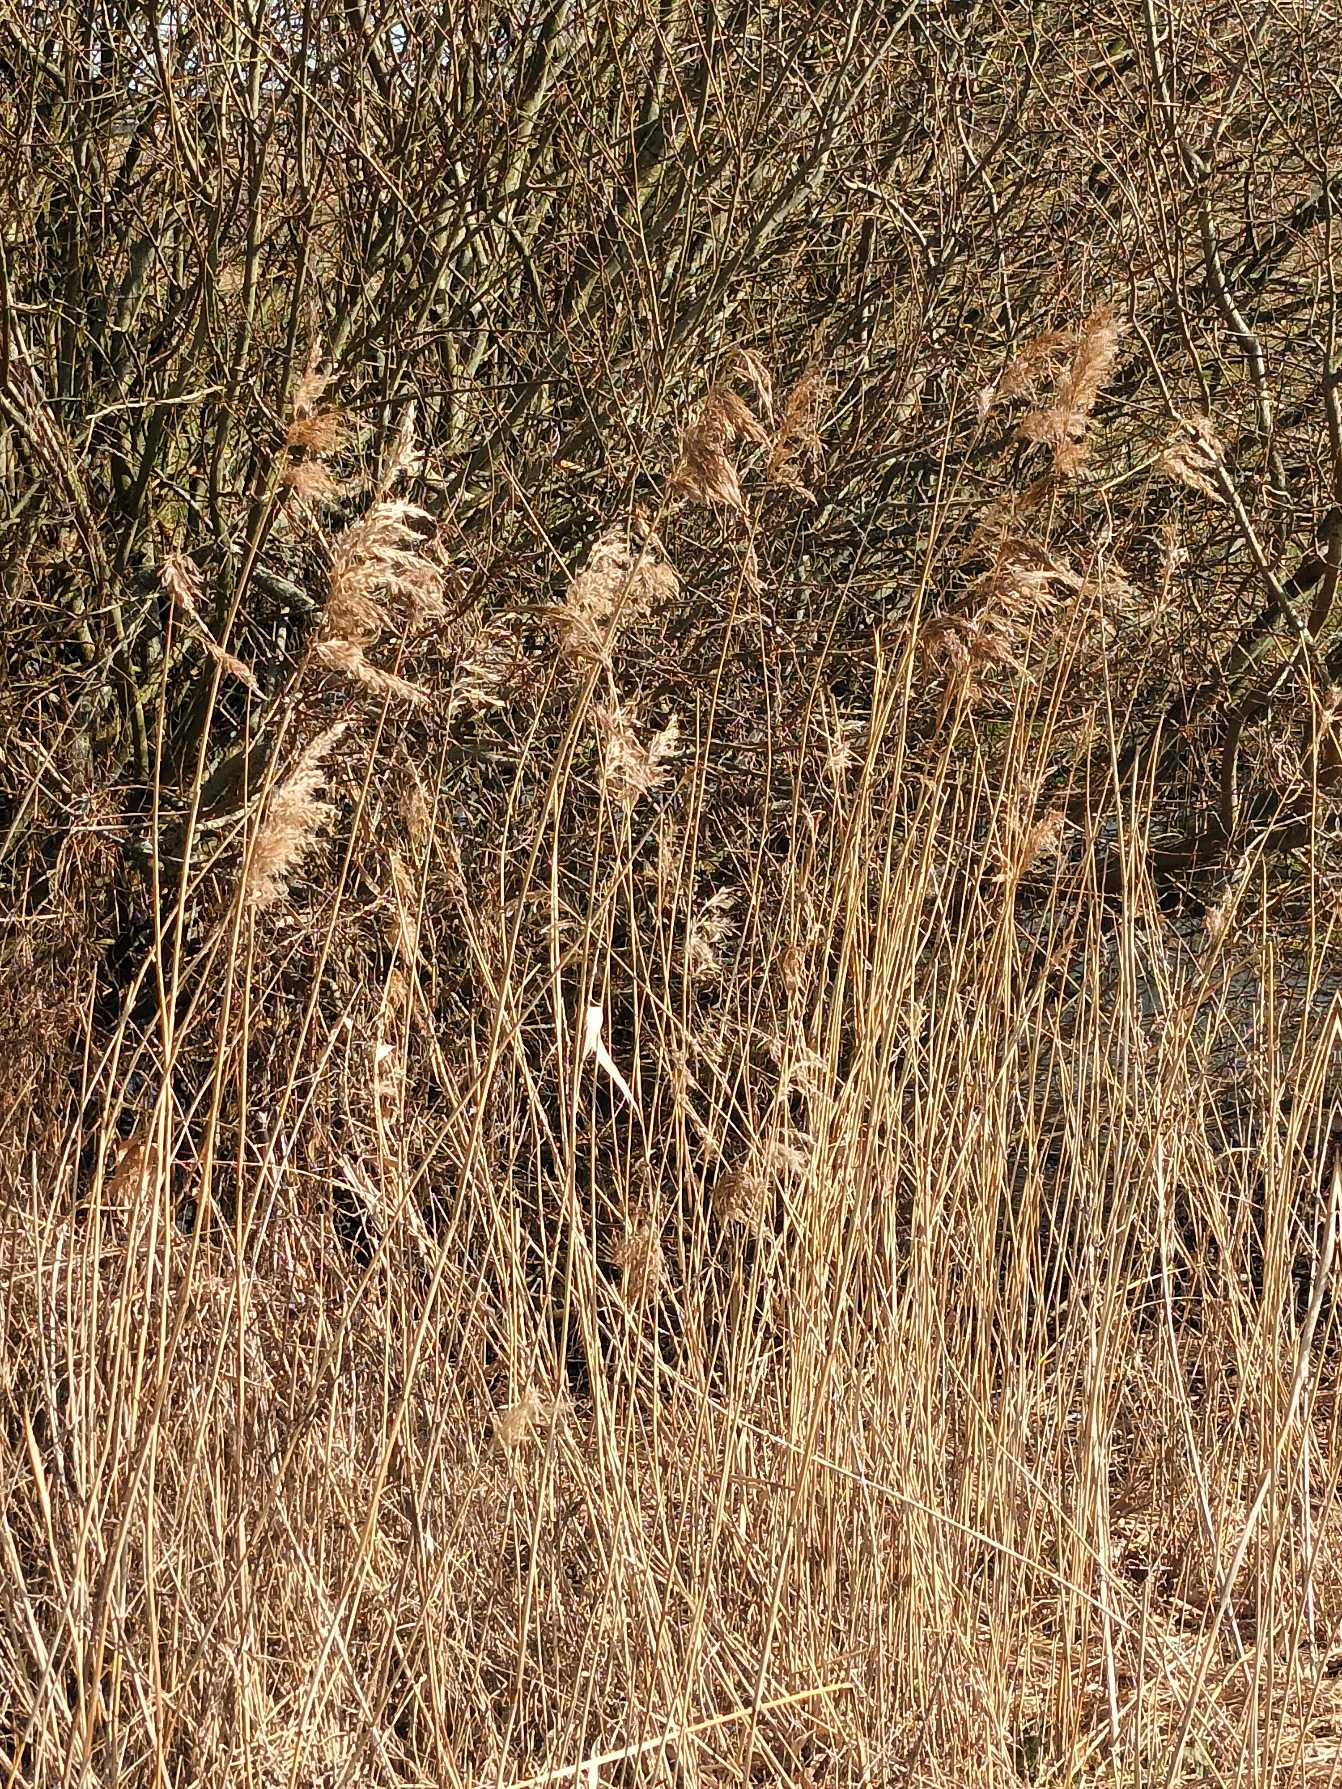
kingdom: Plantae
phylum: Tracheophyta
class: Liliopsida
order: Poales
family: Poaceae
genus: Phragmites
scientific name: Phragmites australis
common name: Tagrør
